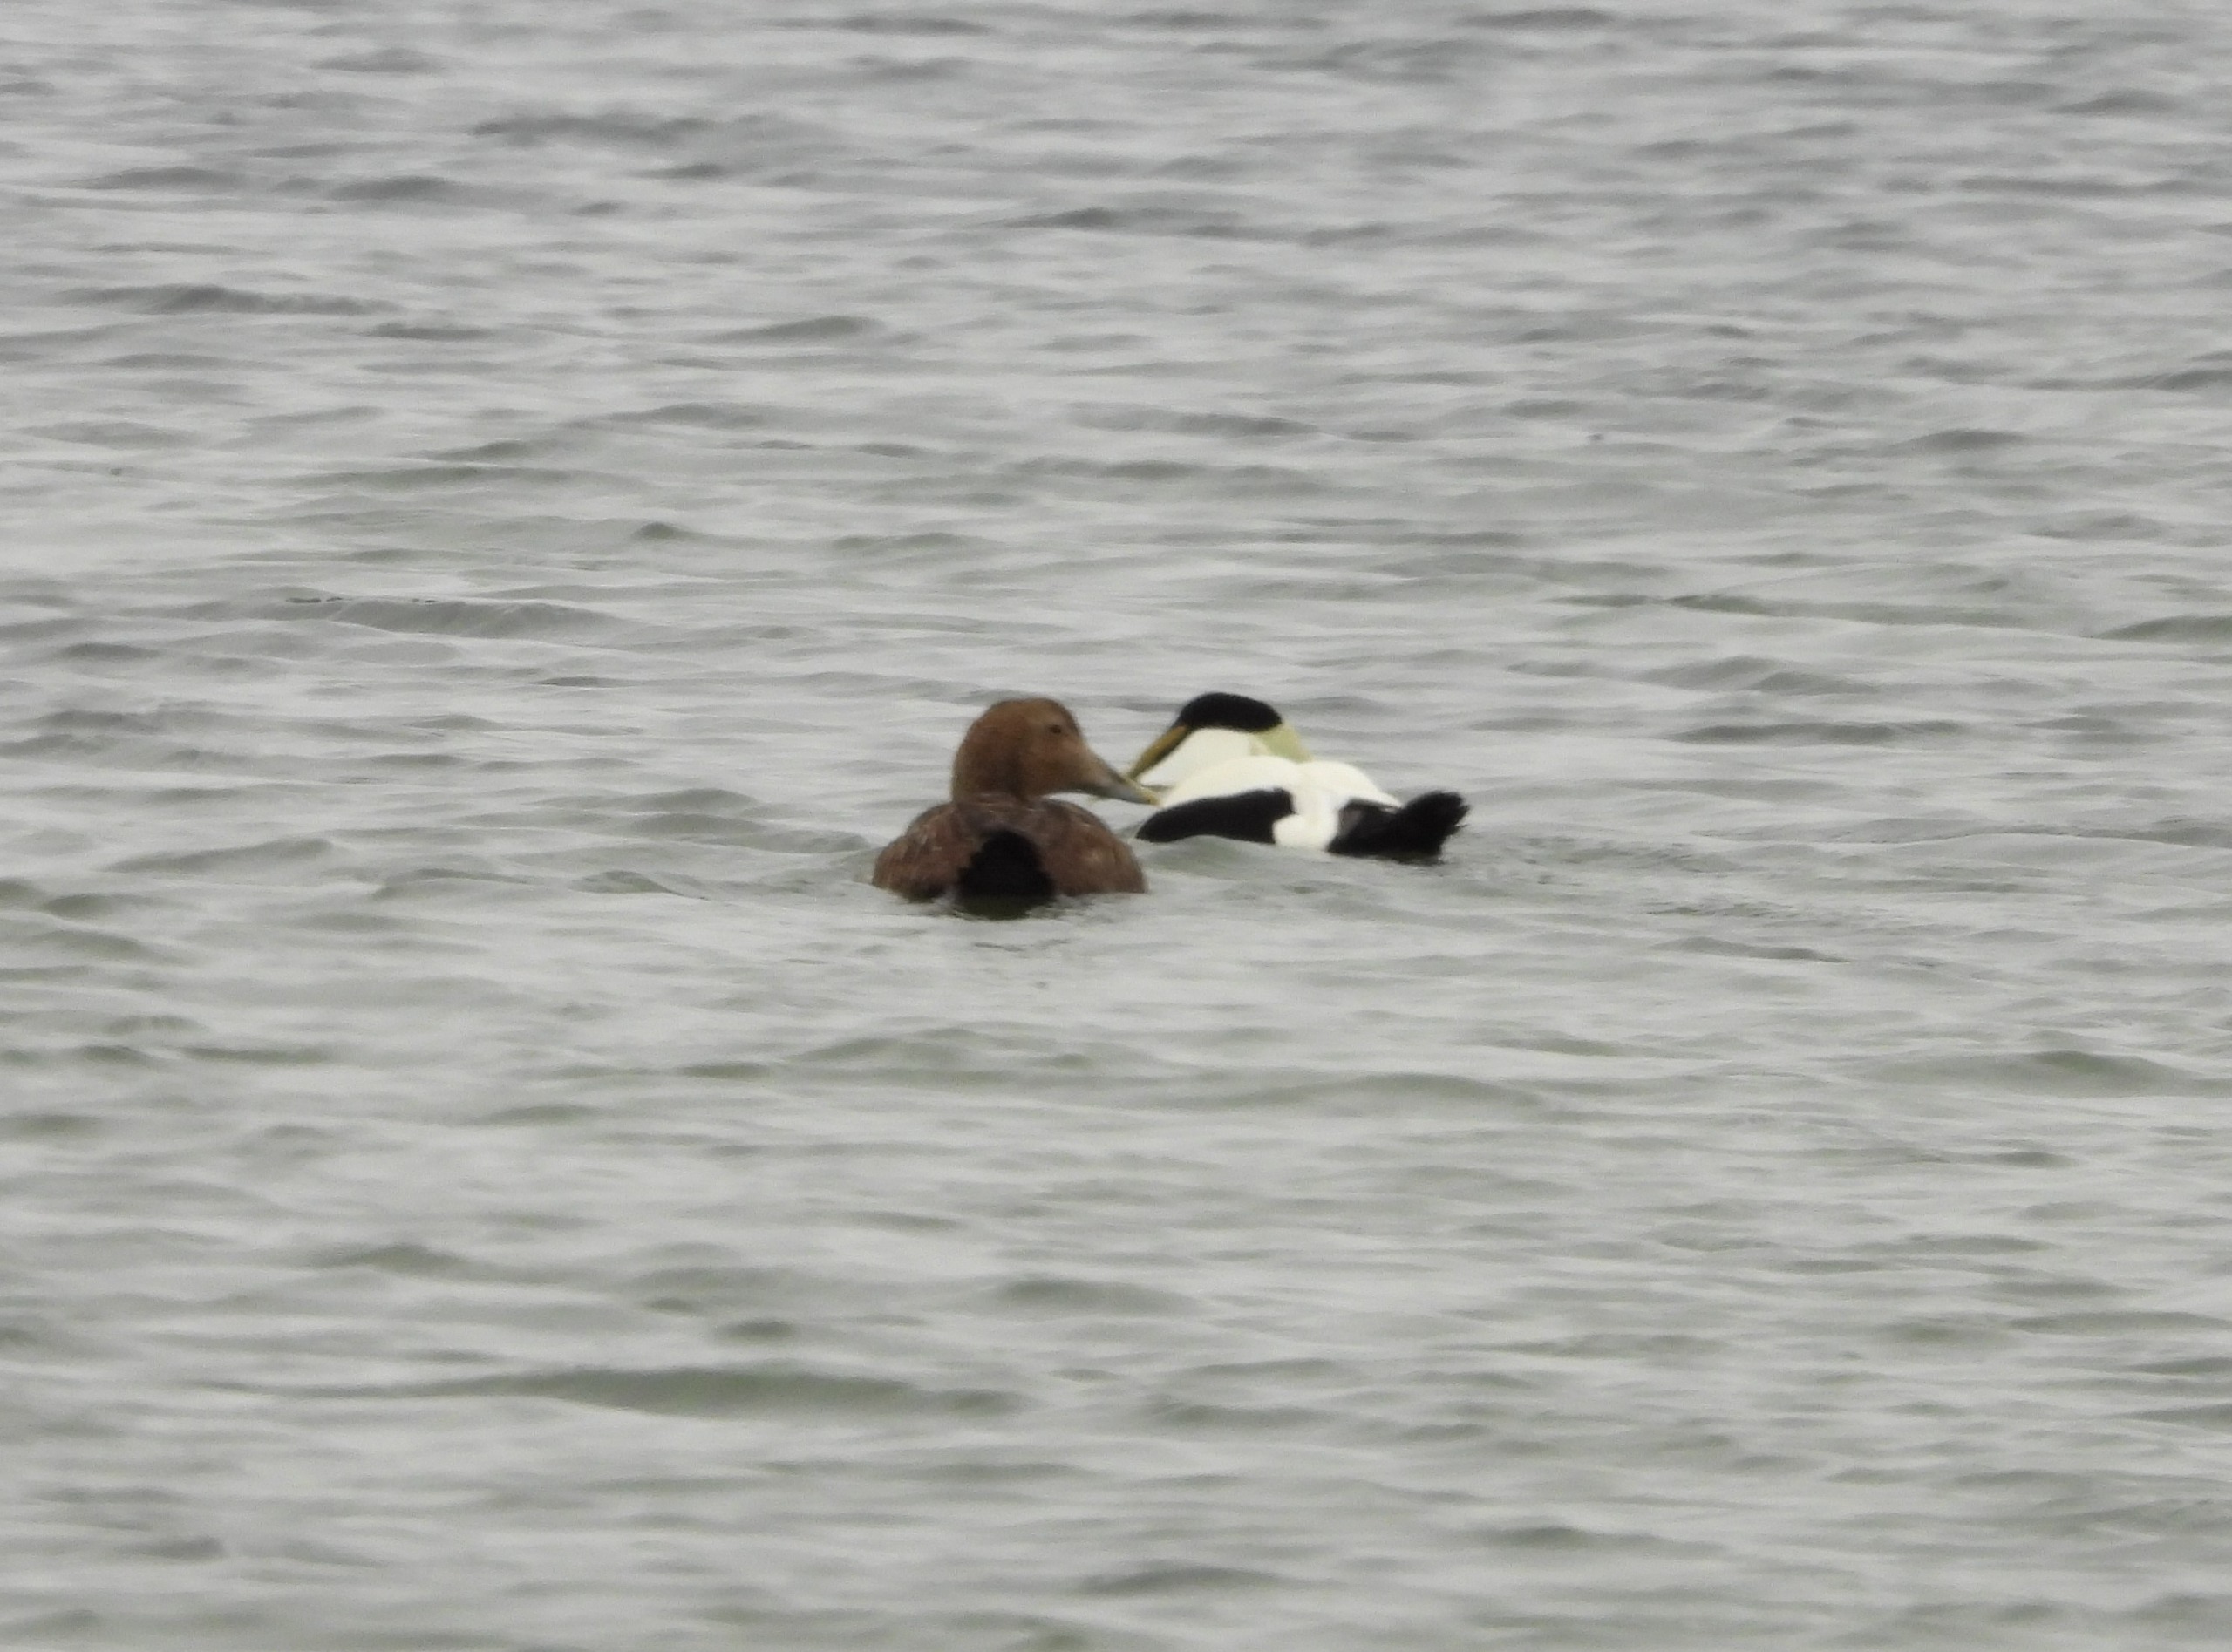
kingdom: Animalia
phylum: Chordata
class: Aves
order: Anseriformes
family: Anatidae
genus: Somateria
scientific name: Somateria mollissima
